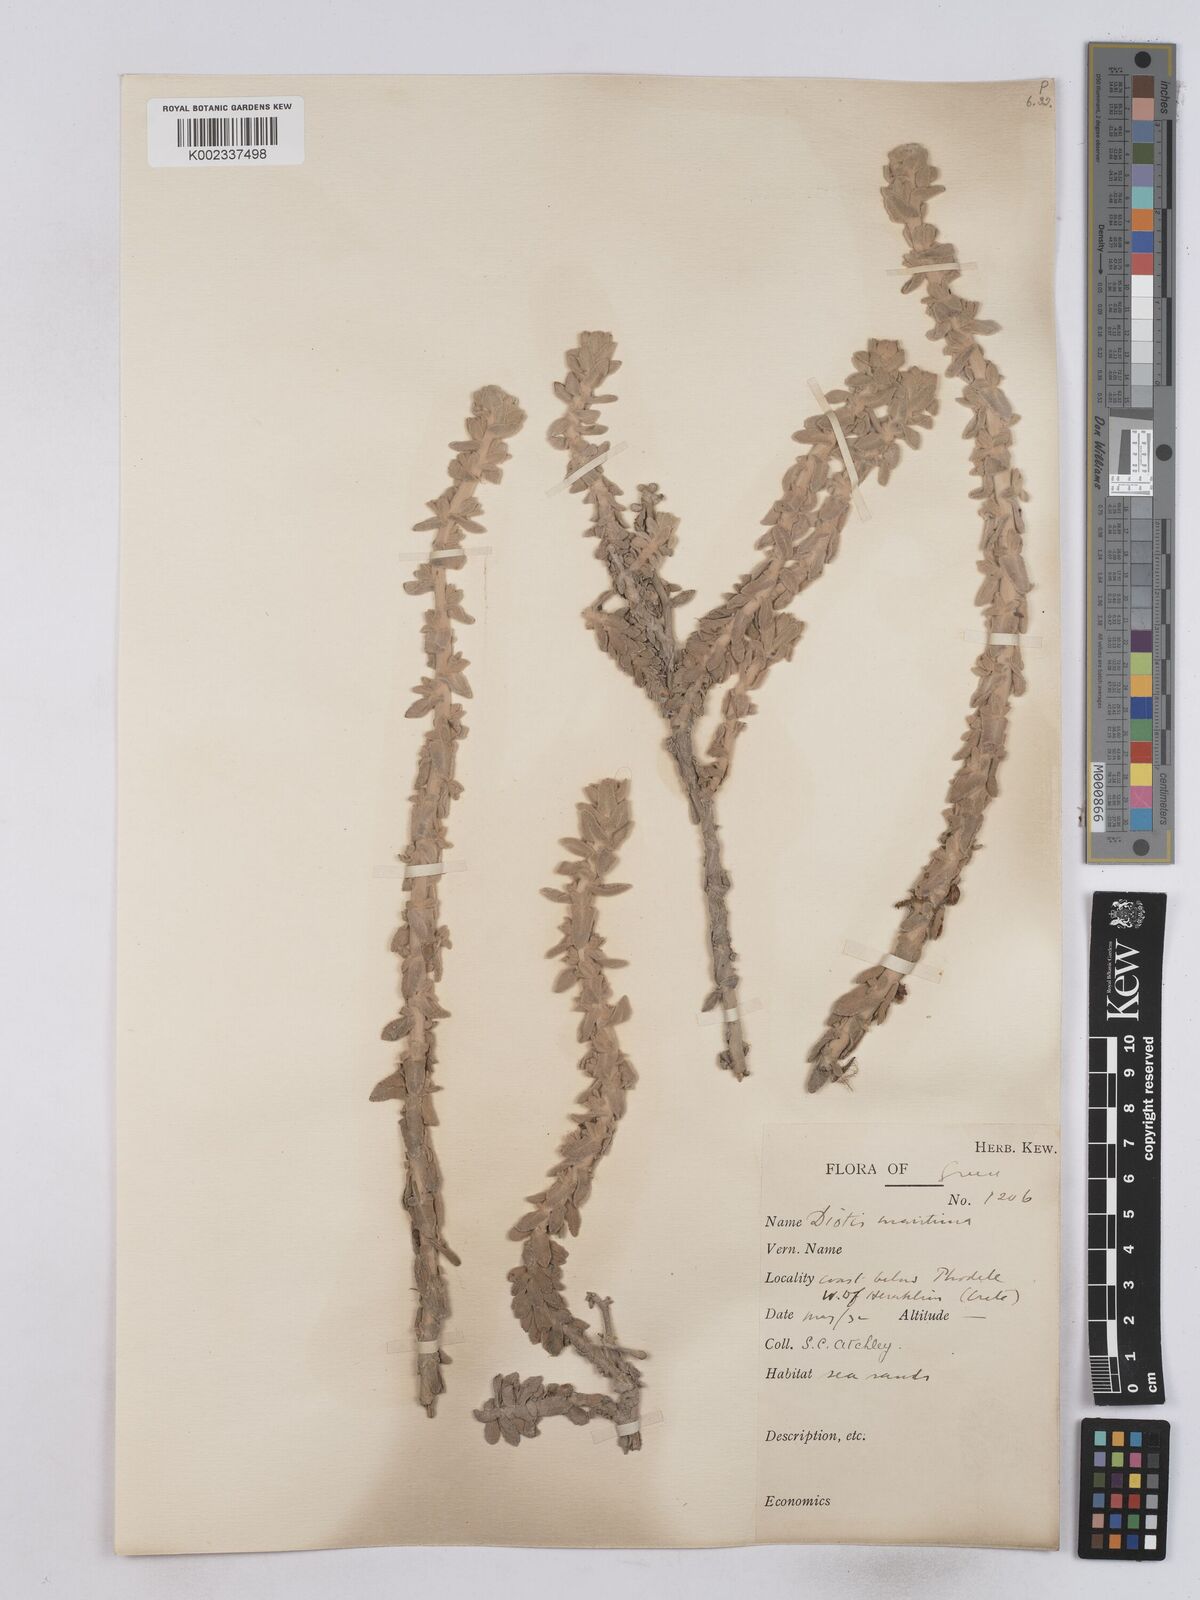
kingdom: Plantae
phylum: Tracheophyta
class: Magnoliopsida
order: Asterales
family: Asteraceae
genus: Achillea
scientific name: Achillea maritima
